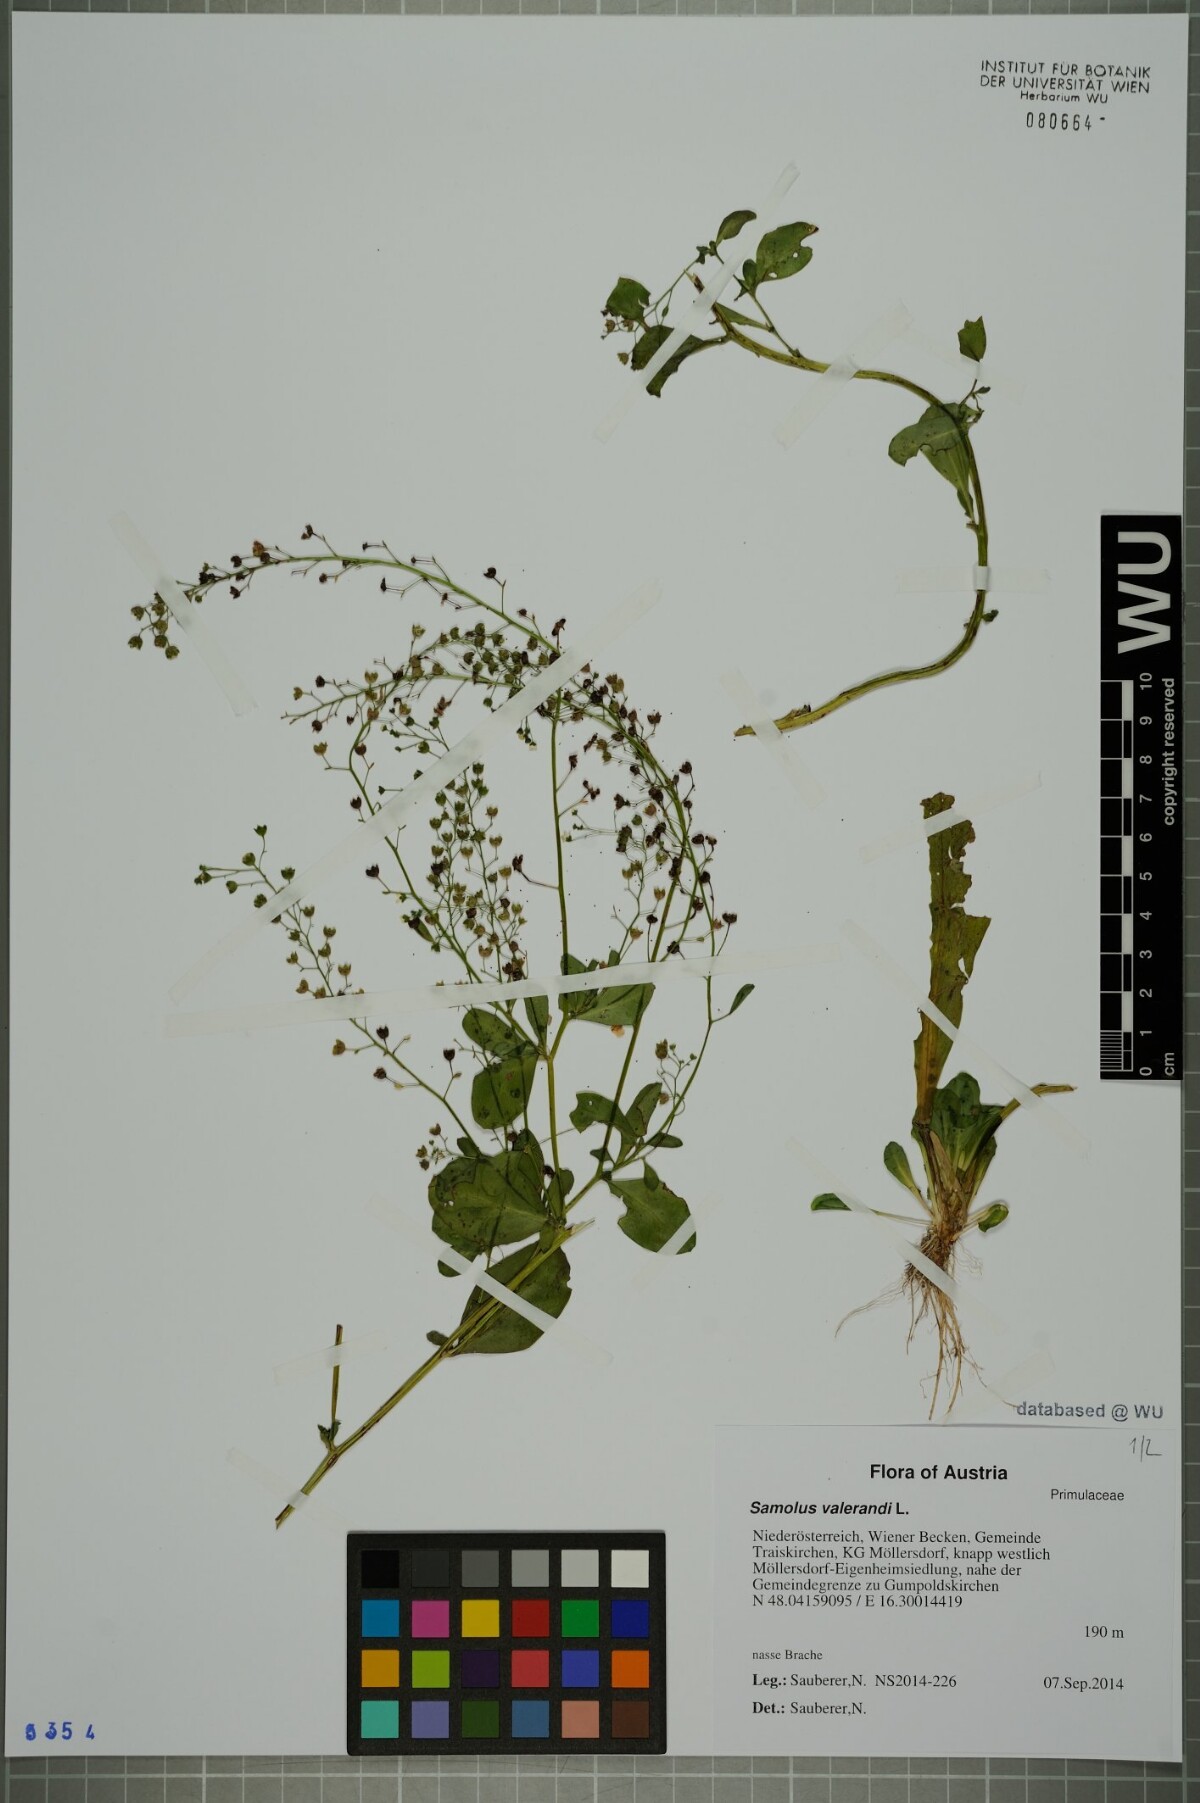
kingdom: Plantae
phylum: Tracheophyta
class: Magnoliopsida
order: Ericales
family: Primulaceae
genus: Samolus
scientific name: Samolus valerandi
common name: Brookweed
